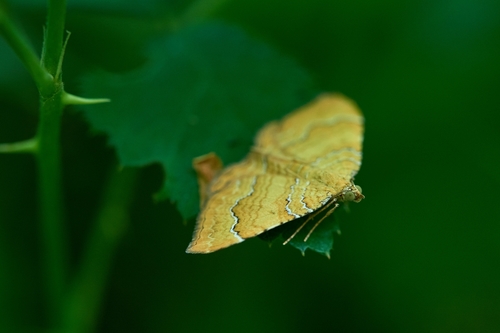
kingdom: Animalia
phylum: Arthropoda
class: Insecta
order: Lepidoptera
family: Geometridae
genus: Camptogramma
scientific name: Camptogramma bilineata
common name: Yellow shell
